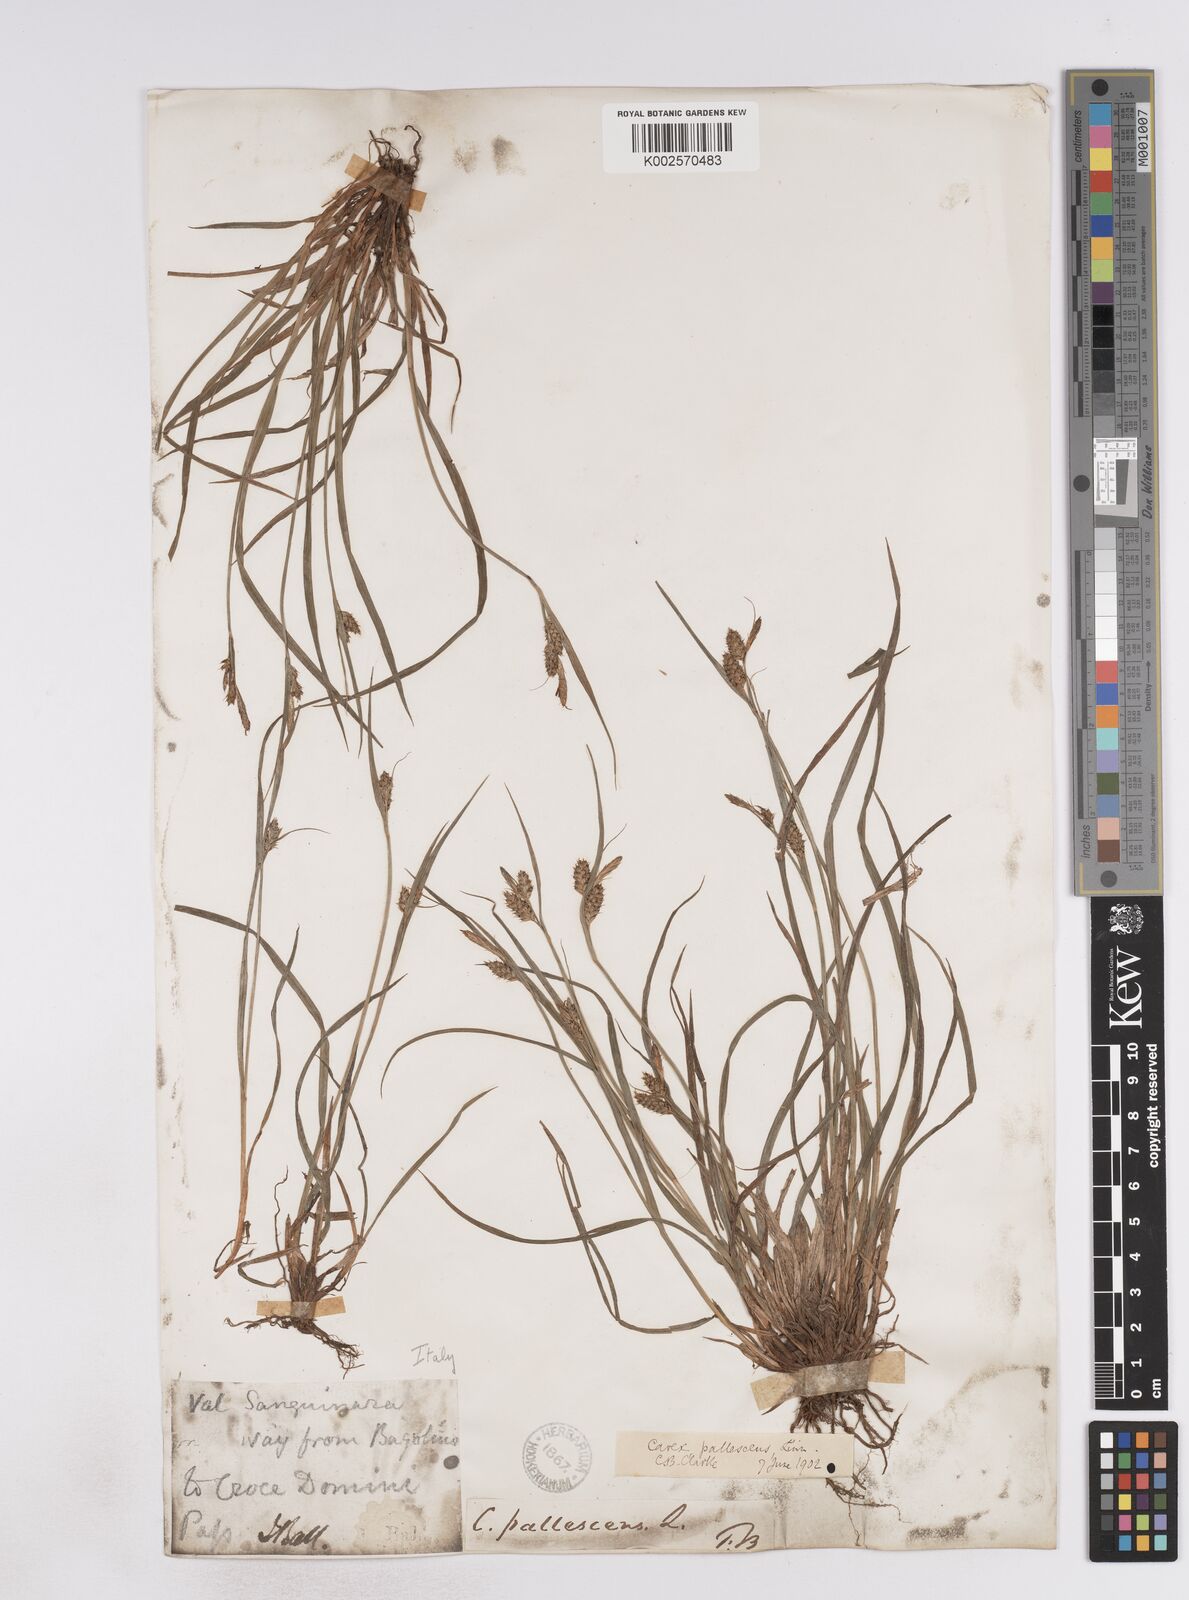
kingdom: Plantae
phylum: Tracheophyta
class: Liliopsida
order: Poales
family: Cyperaceae
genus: Carex
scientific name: Carex pallescens
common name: Pale sedge
